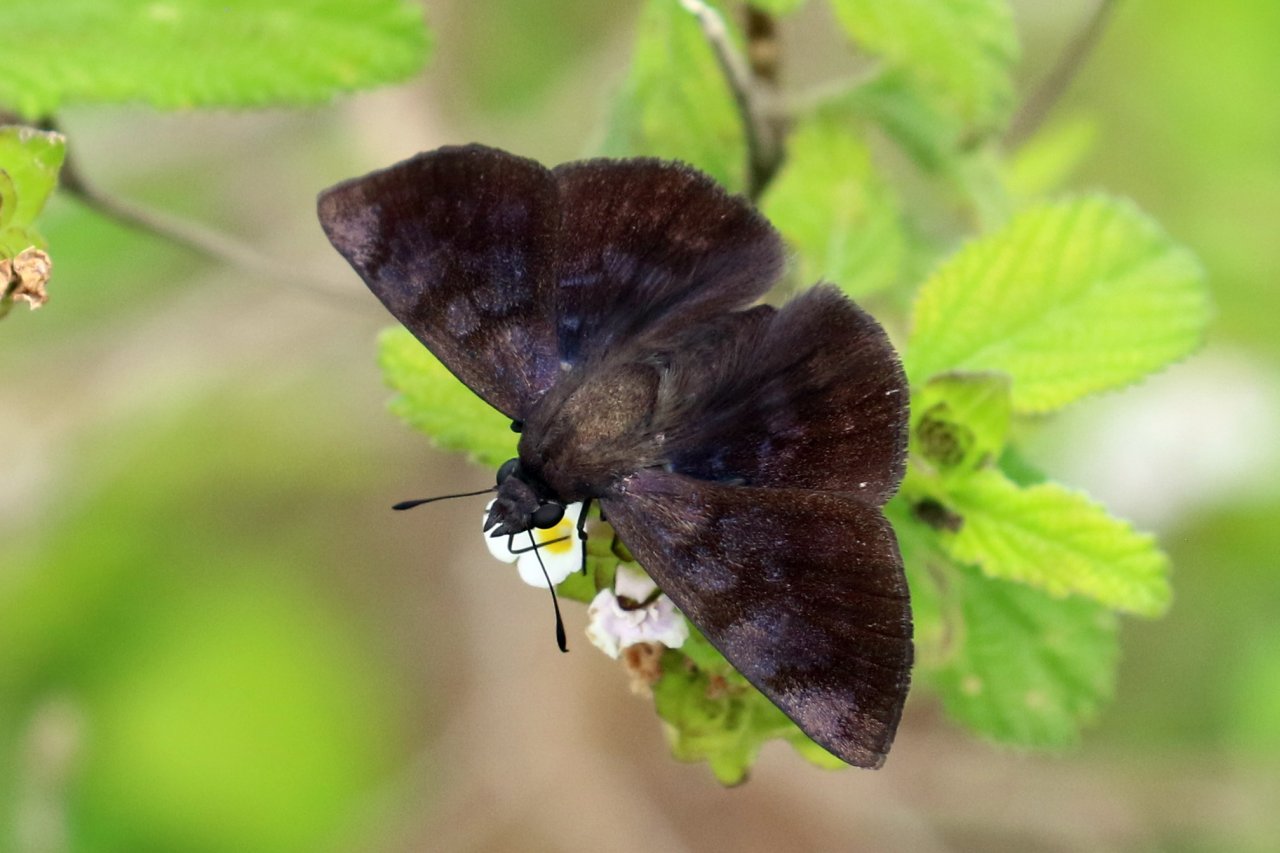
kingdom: Animalia
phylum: Arthropoda
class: Insecta
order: Lepidoptera
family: Hesperiidae
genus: Pellicia
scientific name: Pellicia costimacula
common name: Glazed Pellicia
